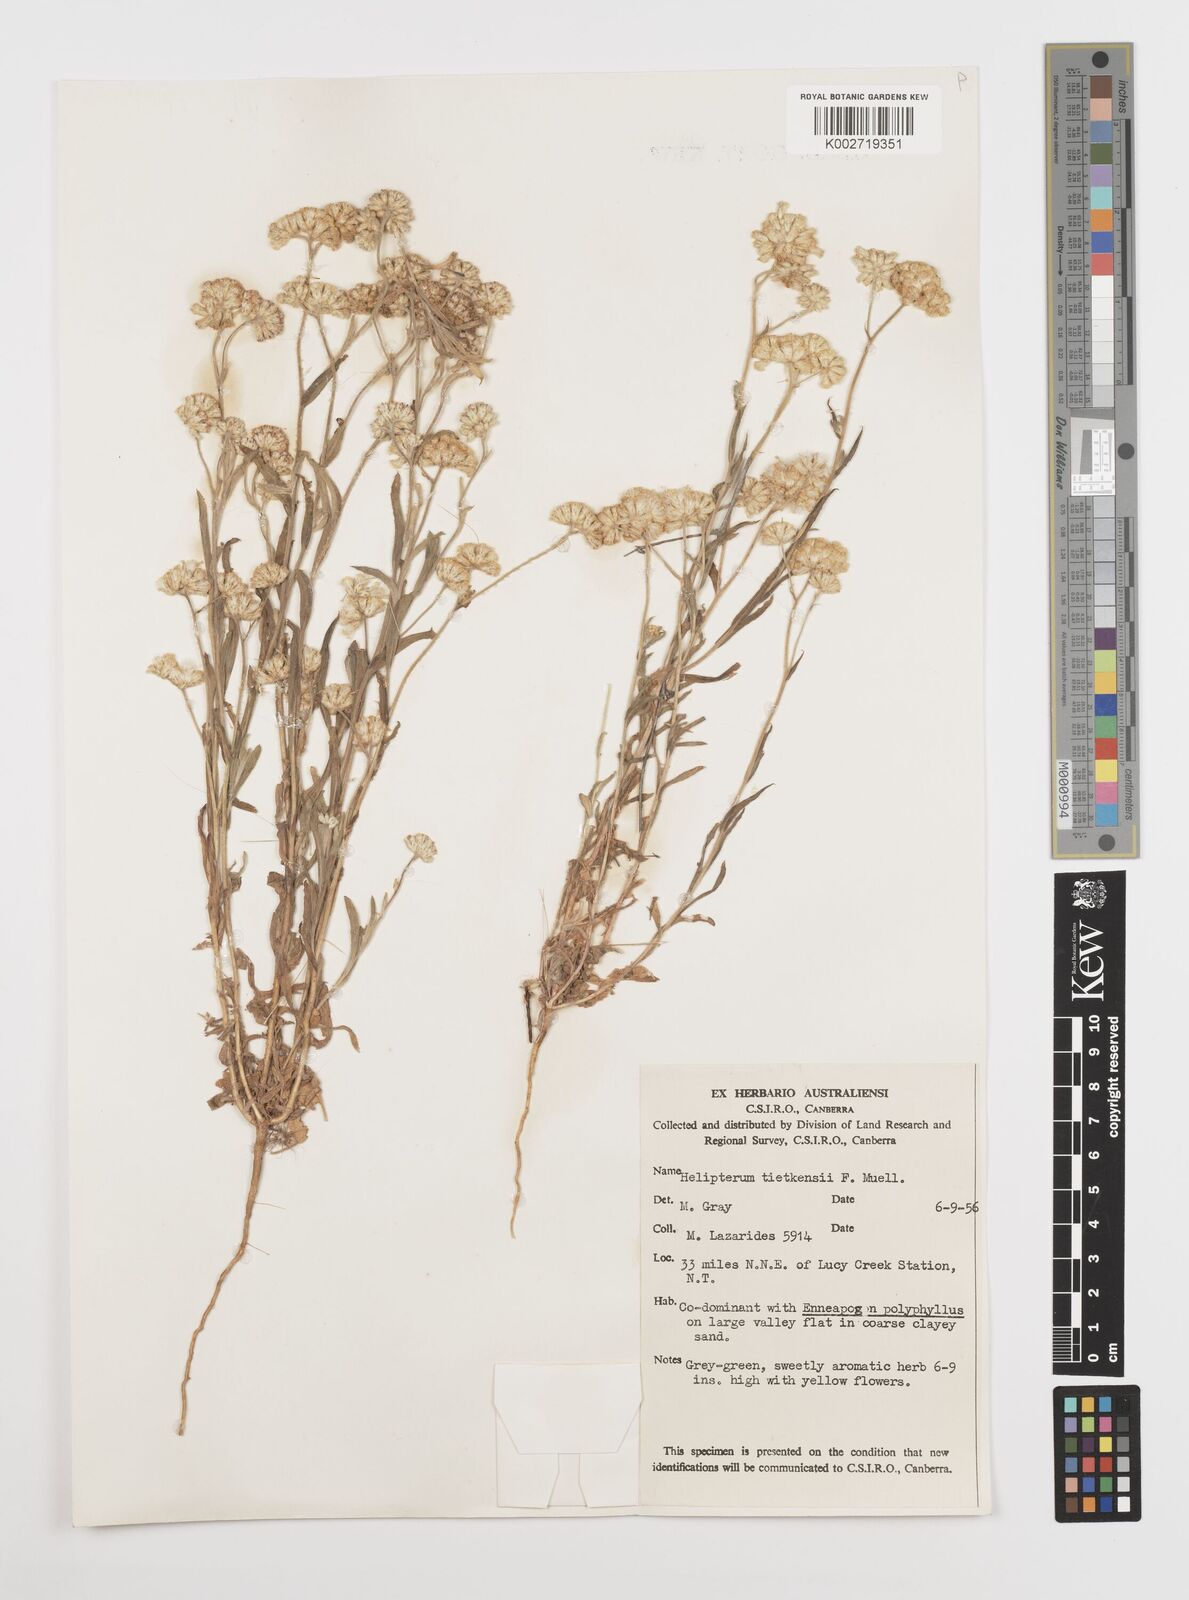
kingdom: Plantae
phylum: Tracheophyta
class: Magnoliopsida
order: Asterales
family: Asteraceae
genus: Rhodanthe
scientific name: Rhodanthe tietkensii
